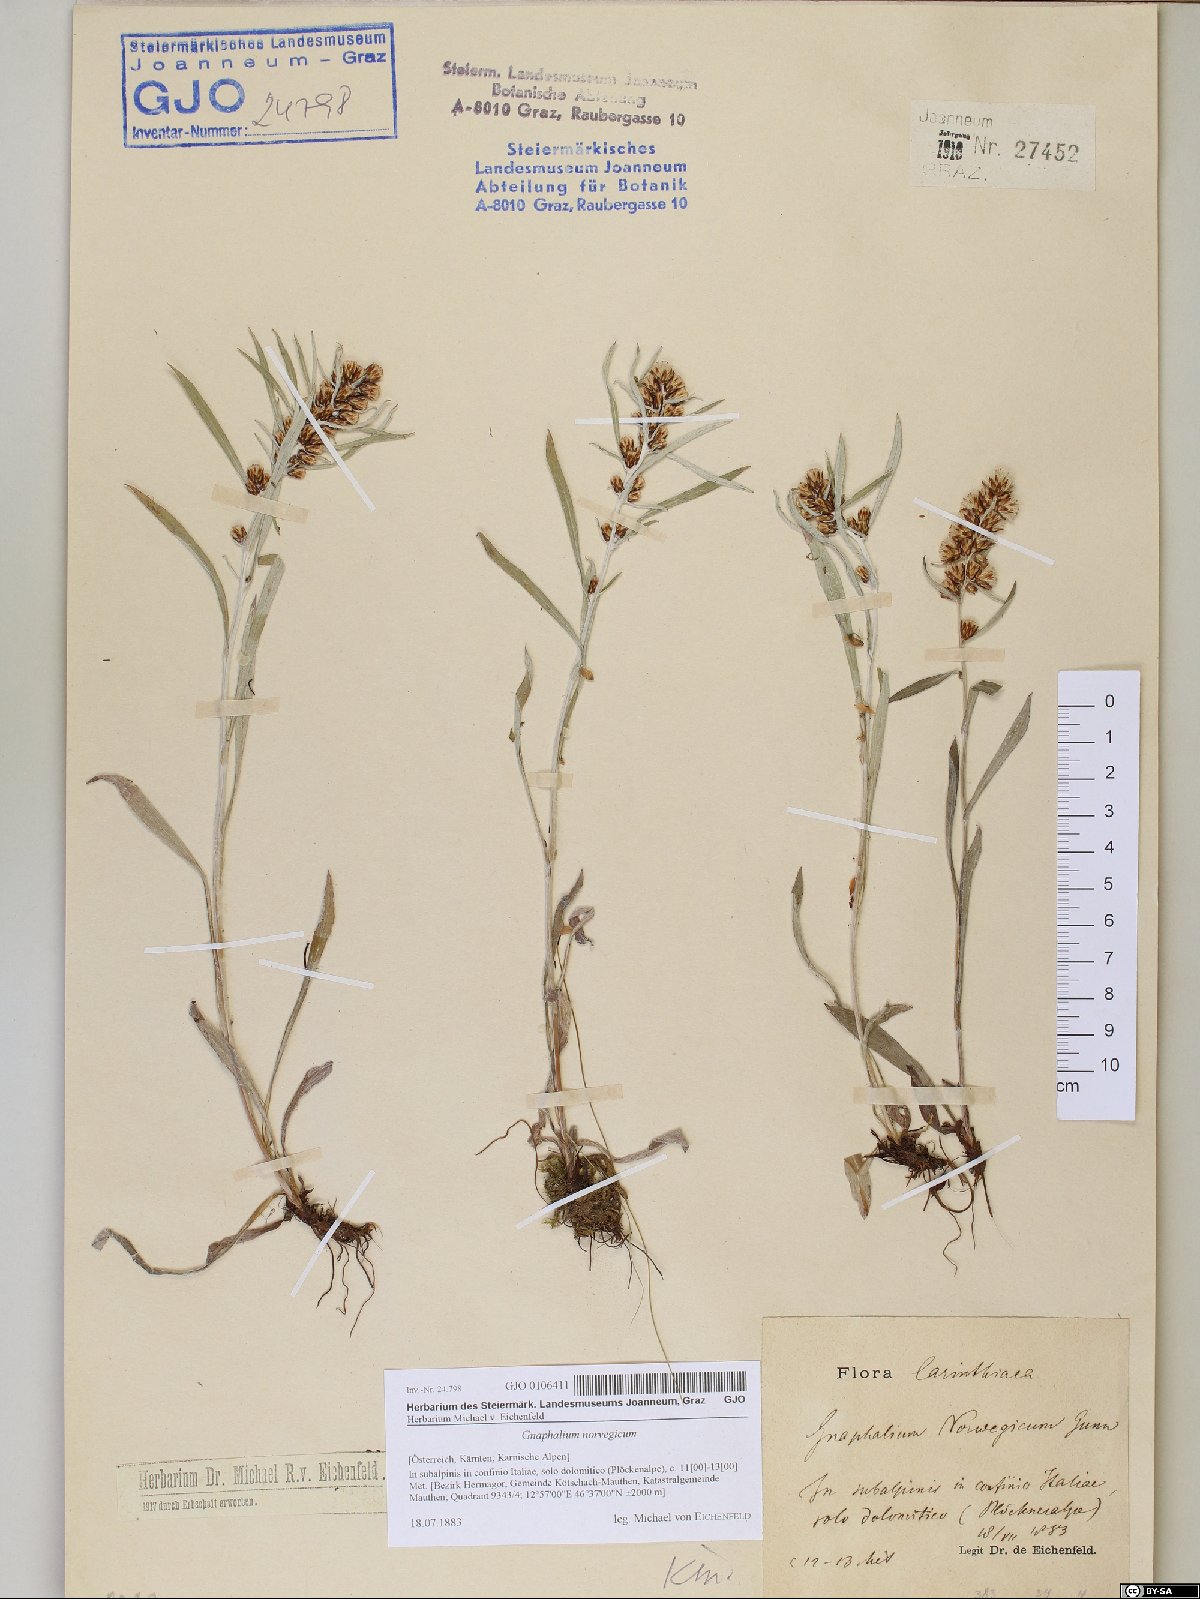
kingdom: Plantae
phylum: Tracheophyta
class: Magnoliopsida
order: Asterales
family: Asteraceae
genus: Omalotheca
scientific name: Omalotheca norvegica
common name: Norwegian arctic-cudweed
